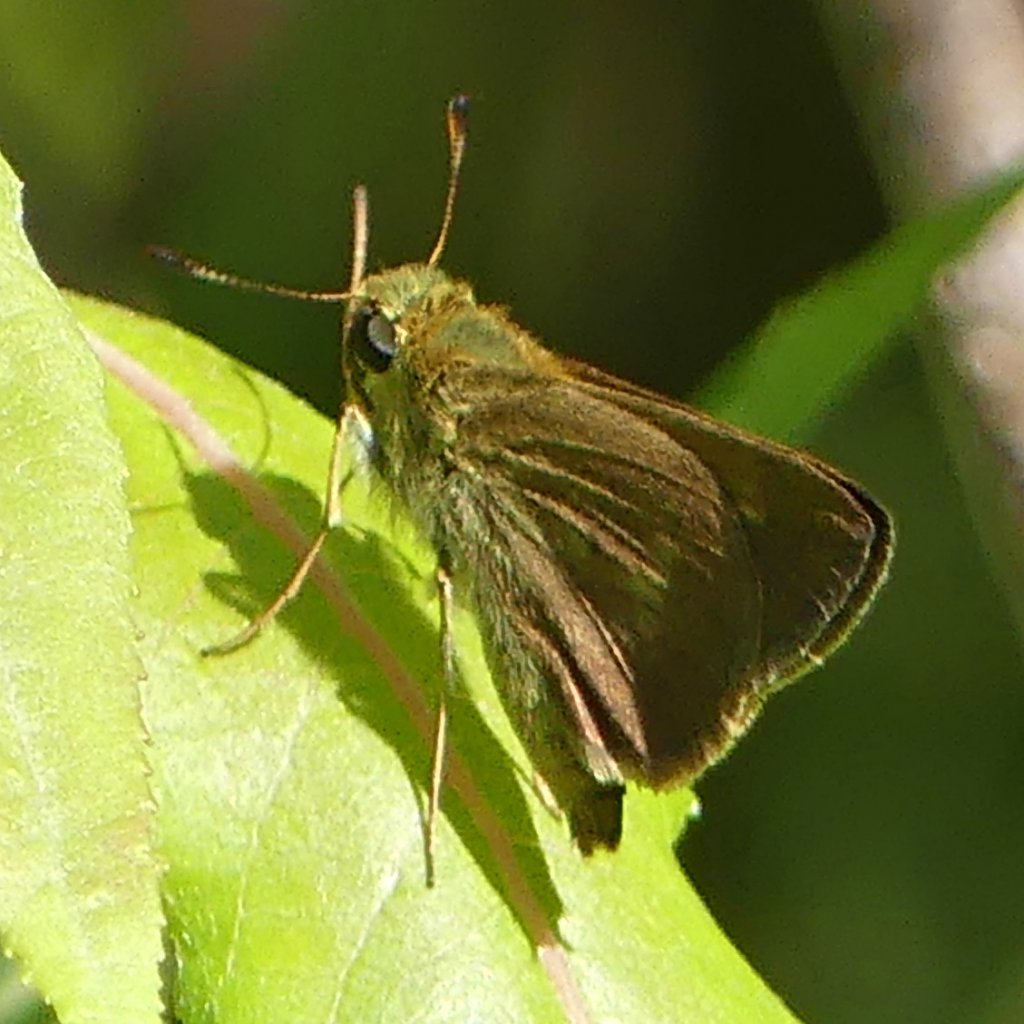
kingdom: Animalia
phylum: Arthropoda
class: Insecta
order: Lepidoptera
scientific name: Lepidoptera
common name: Butterflies
